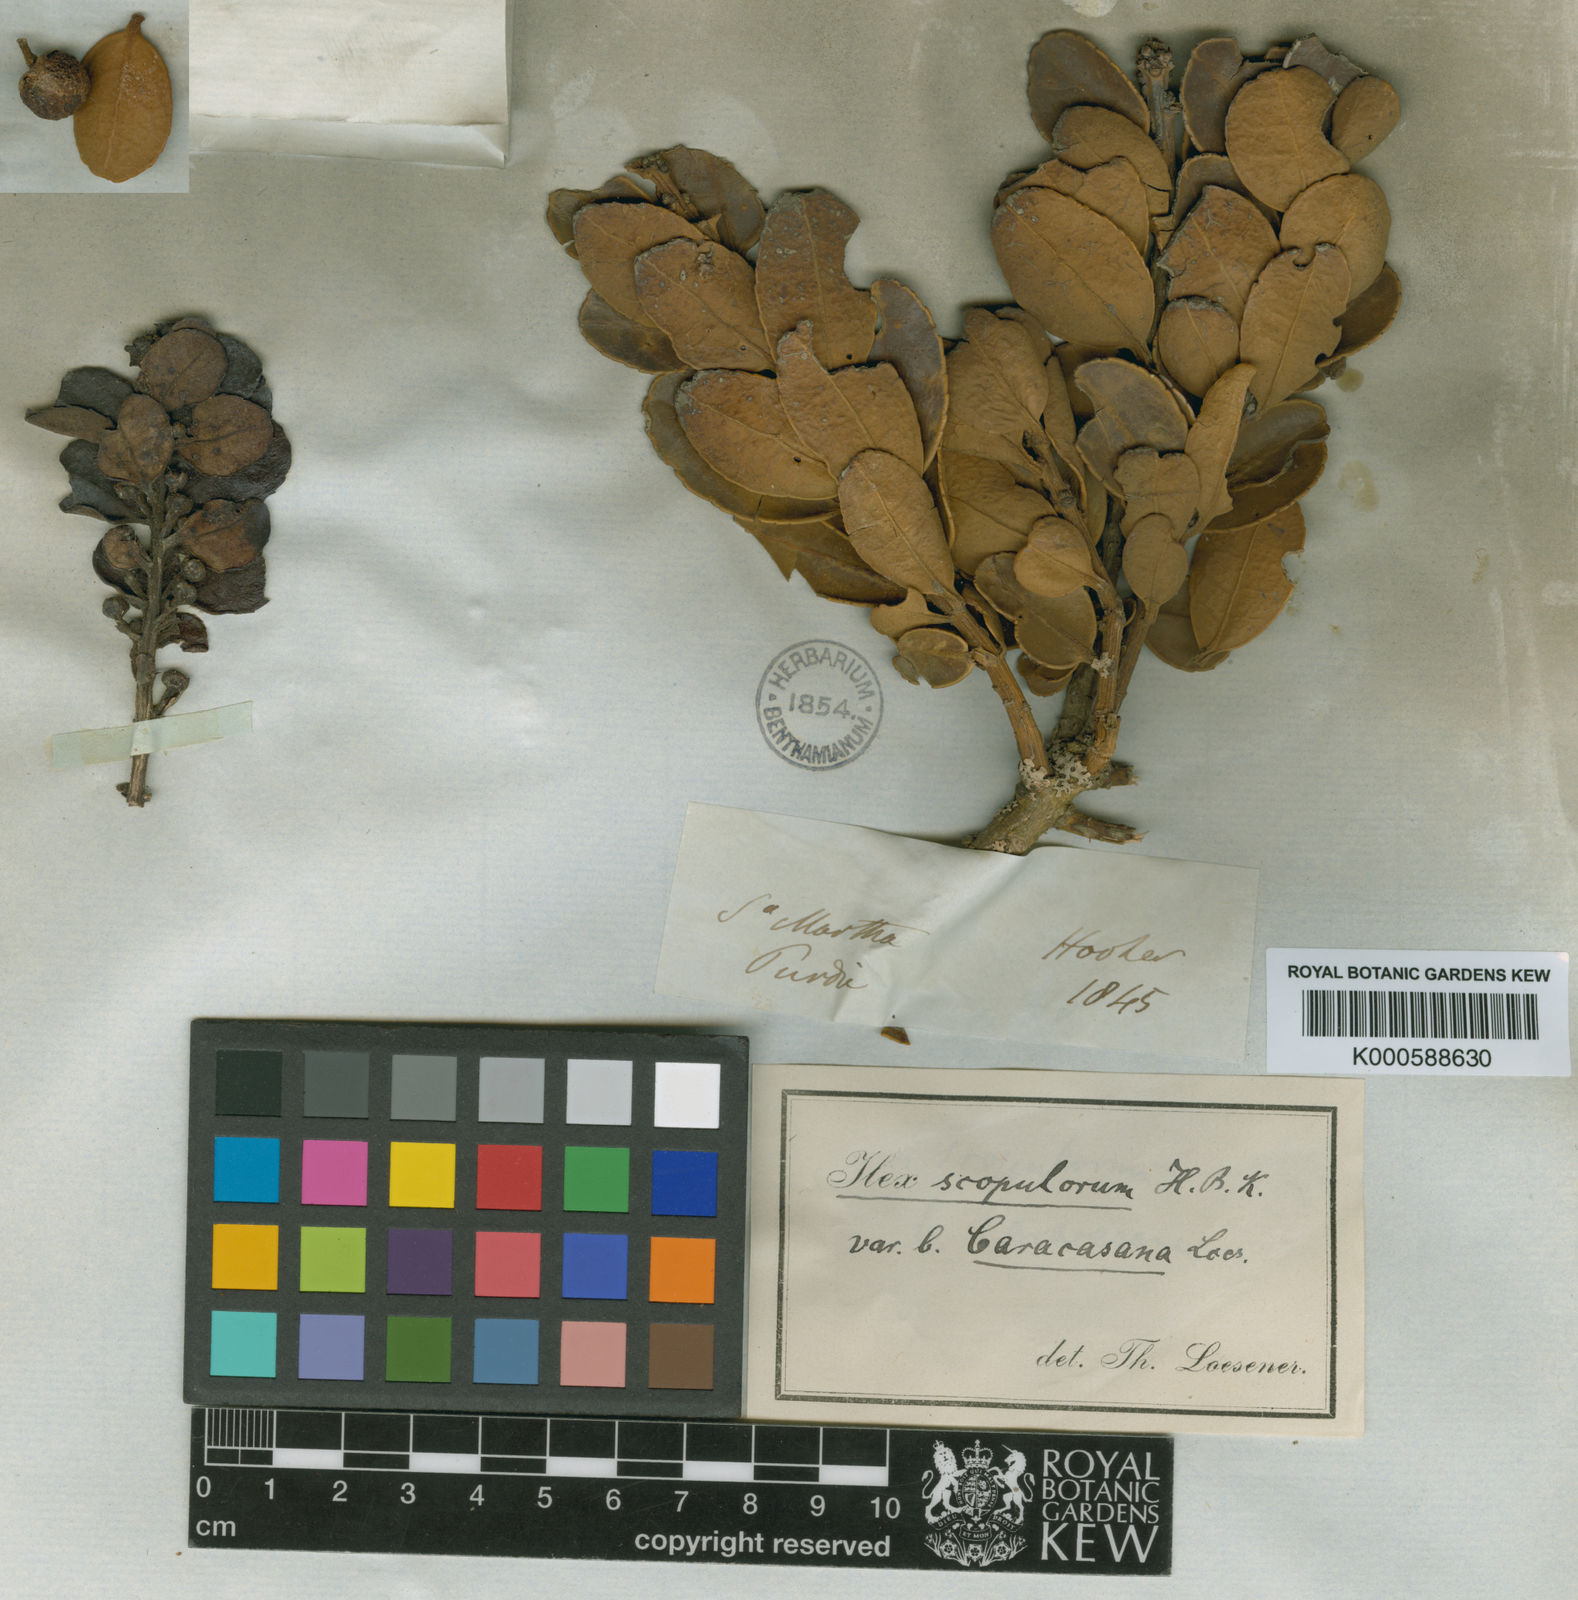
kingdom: Plantae
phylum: Tracheophyta
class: Magnoliopsida
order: Aquifoliales
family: Aquifoliaceae
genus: Ilex
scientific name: Ilex scopulorum
